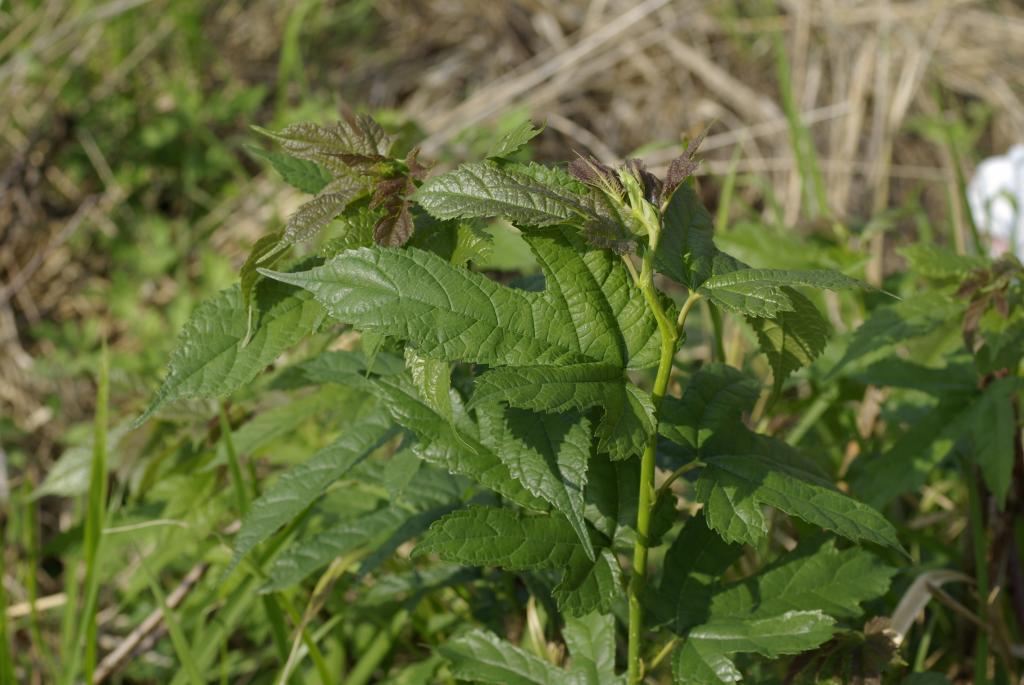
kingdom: Plantae
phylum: Tracheophyta
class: Magnoliopsida
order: Rosales
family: Moraceae
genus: Broussonetia
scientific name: Broussonetia papyrifera
